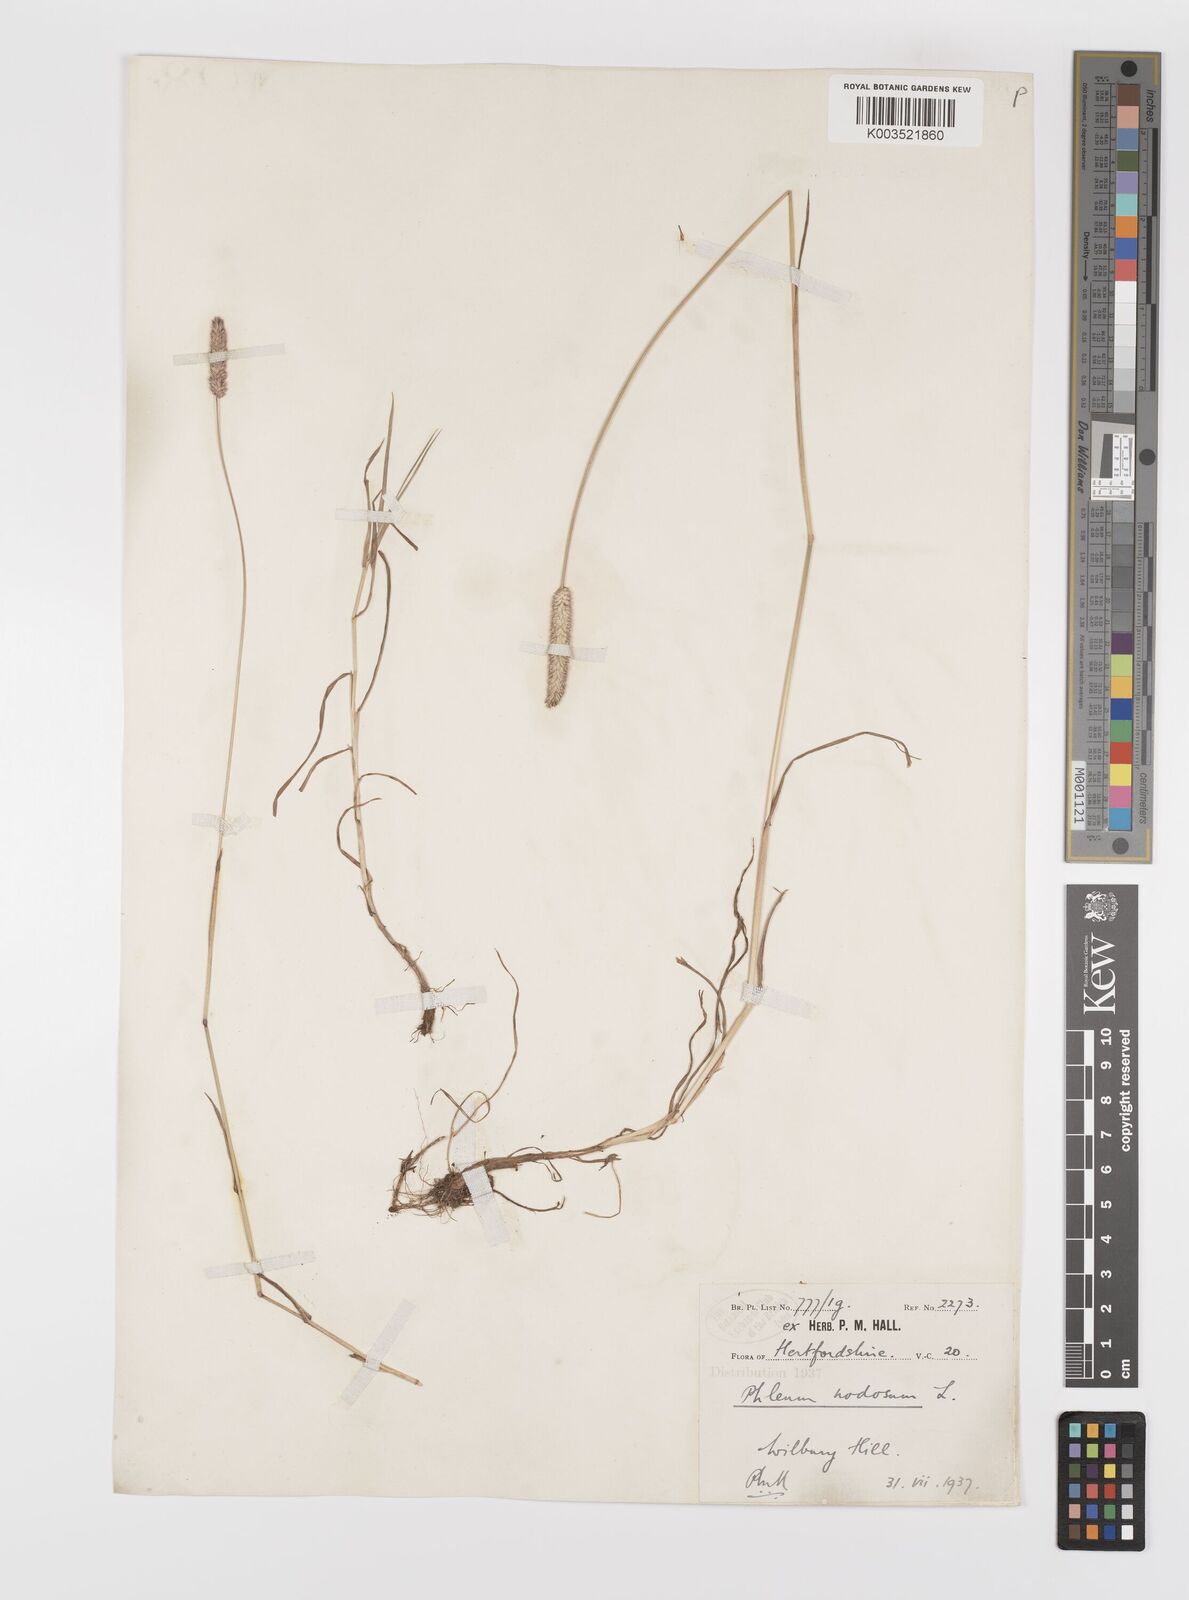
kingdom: Plantae
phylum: Tracheophyta
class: Liliopsida
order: Poales
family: Poaceae
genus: Phleum
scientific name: Phleum bertolonii
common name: Smaller cat's-tail
